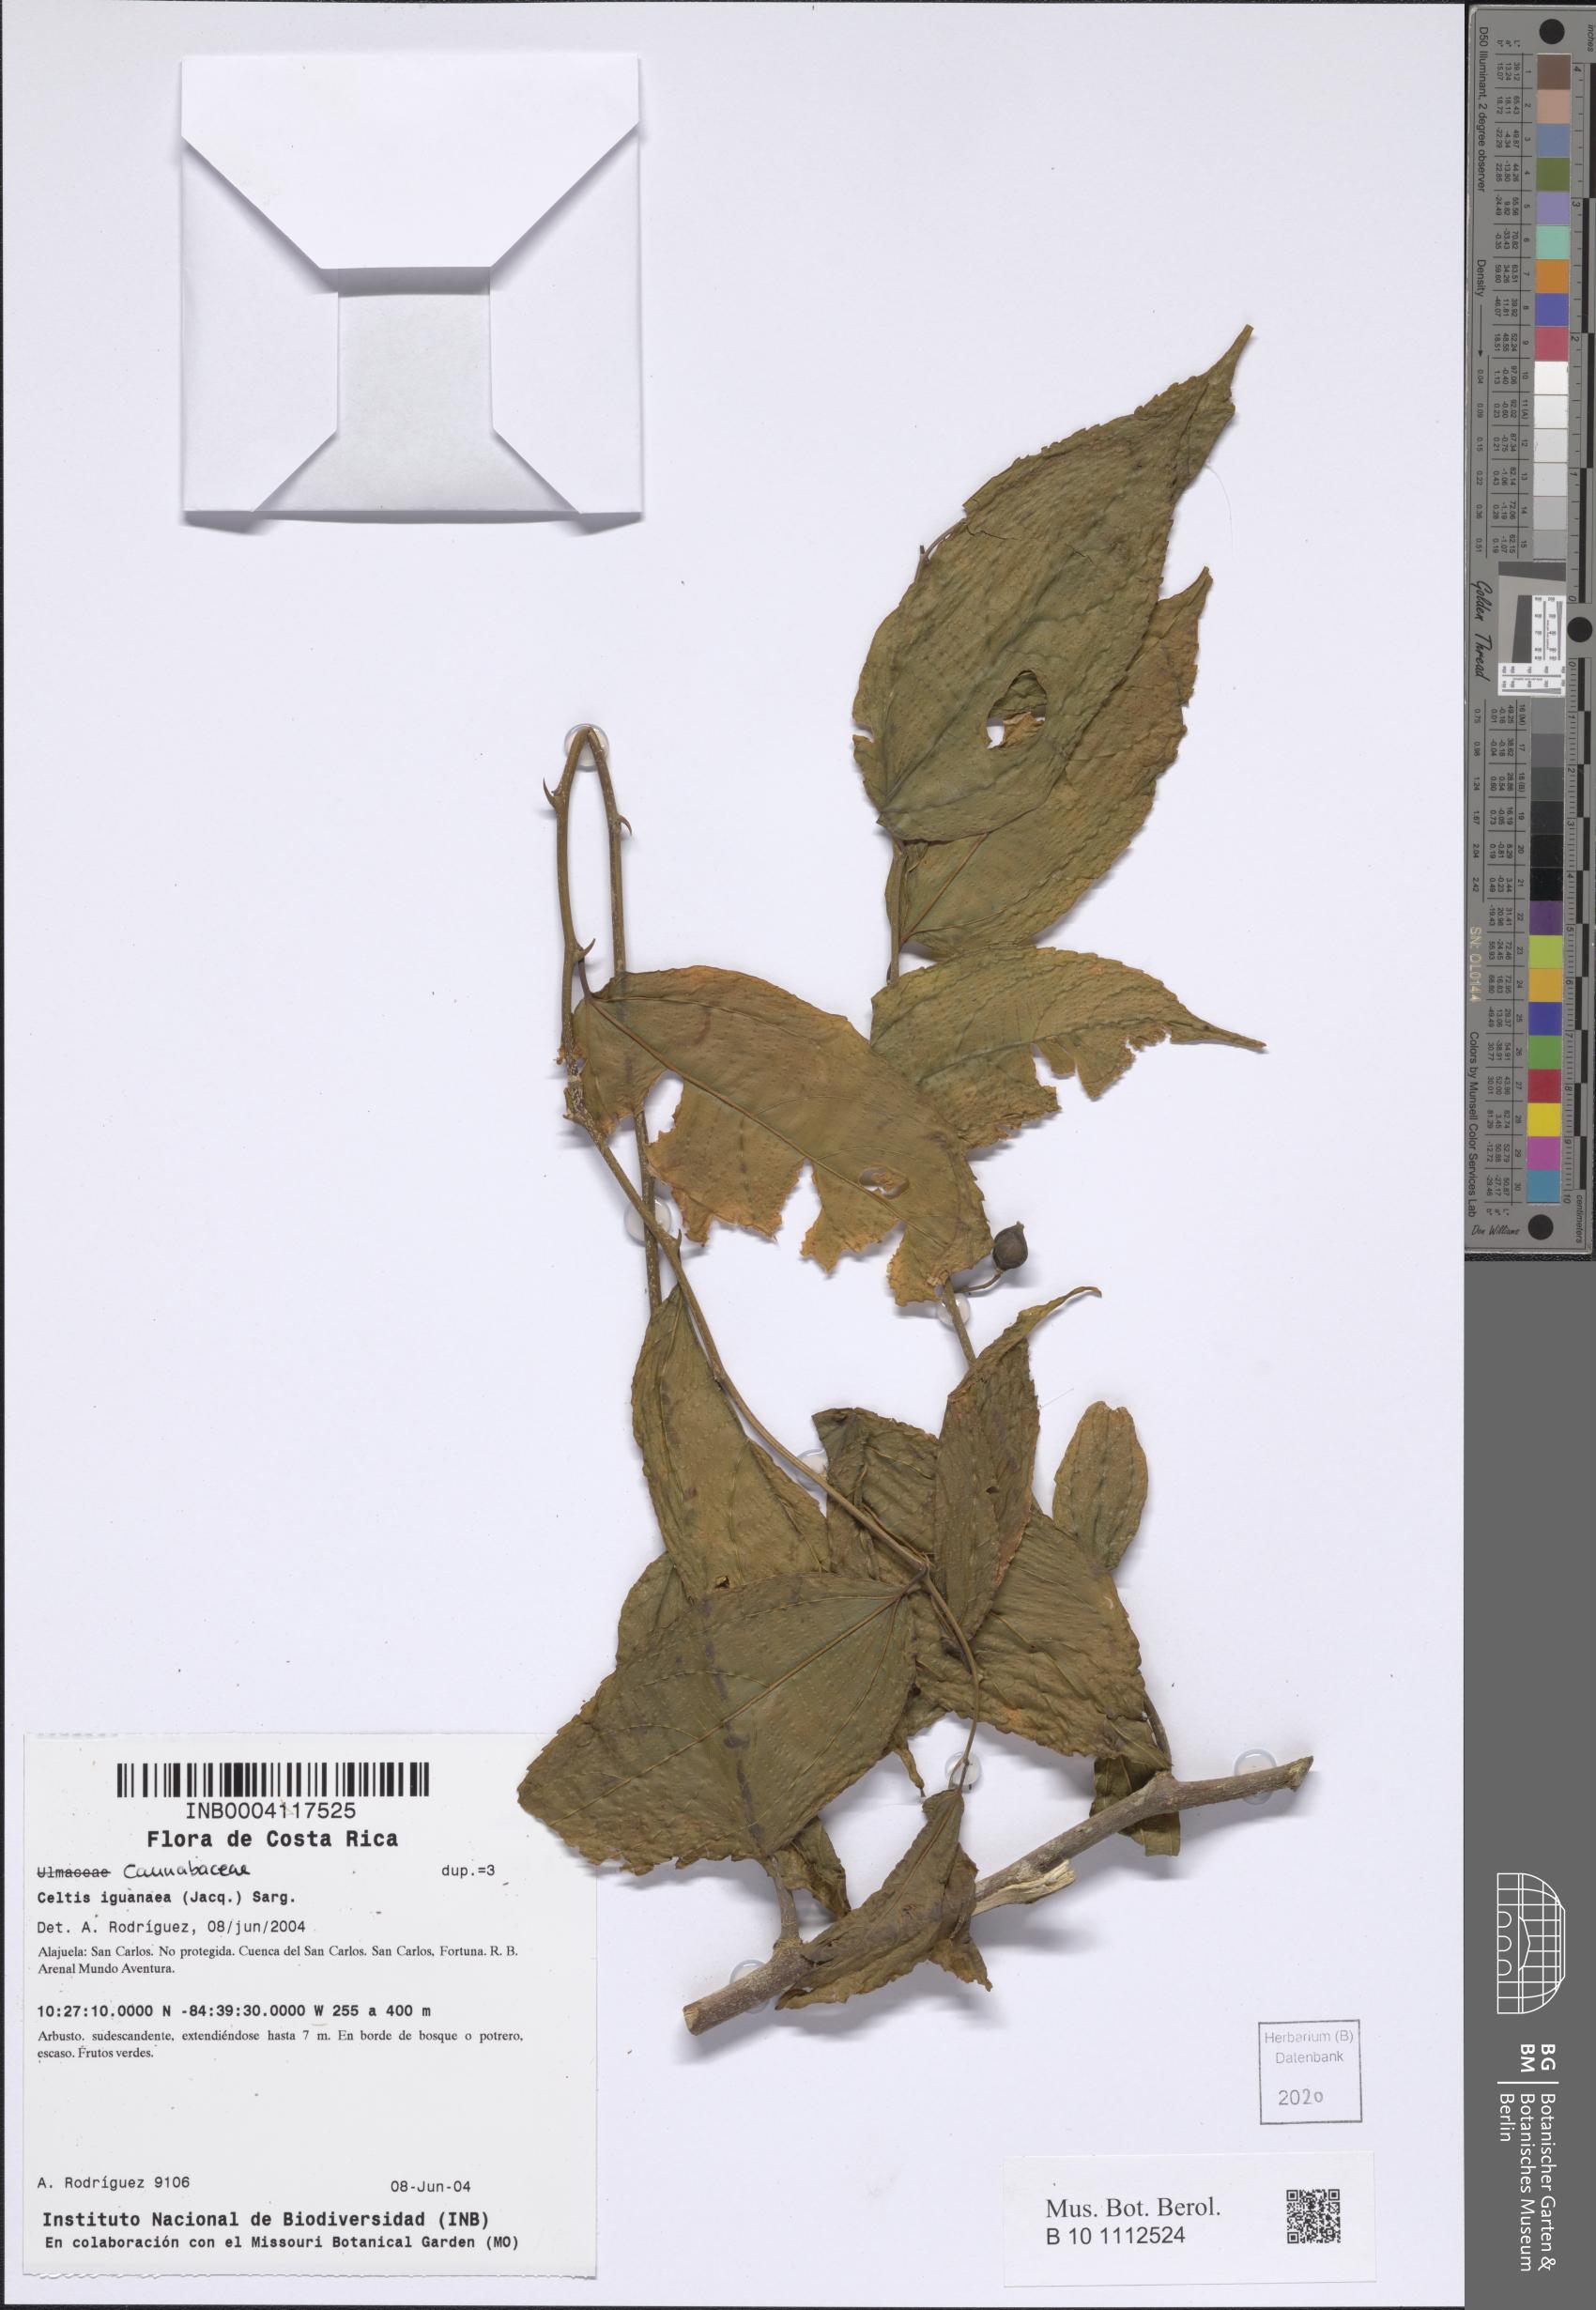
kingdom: Plantae
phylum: Tracheophyta
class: Magnoliopsida
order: Rosales
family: Cannabaceae
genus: Celtis
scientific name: Celtis iguanaea
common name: Iguana hackberry
